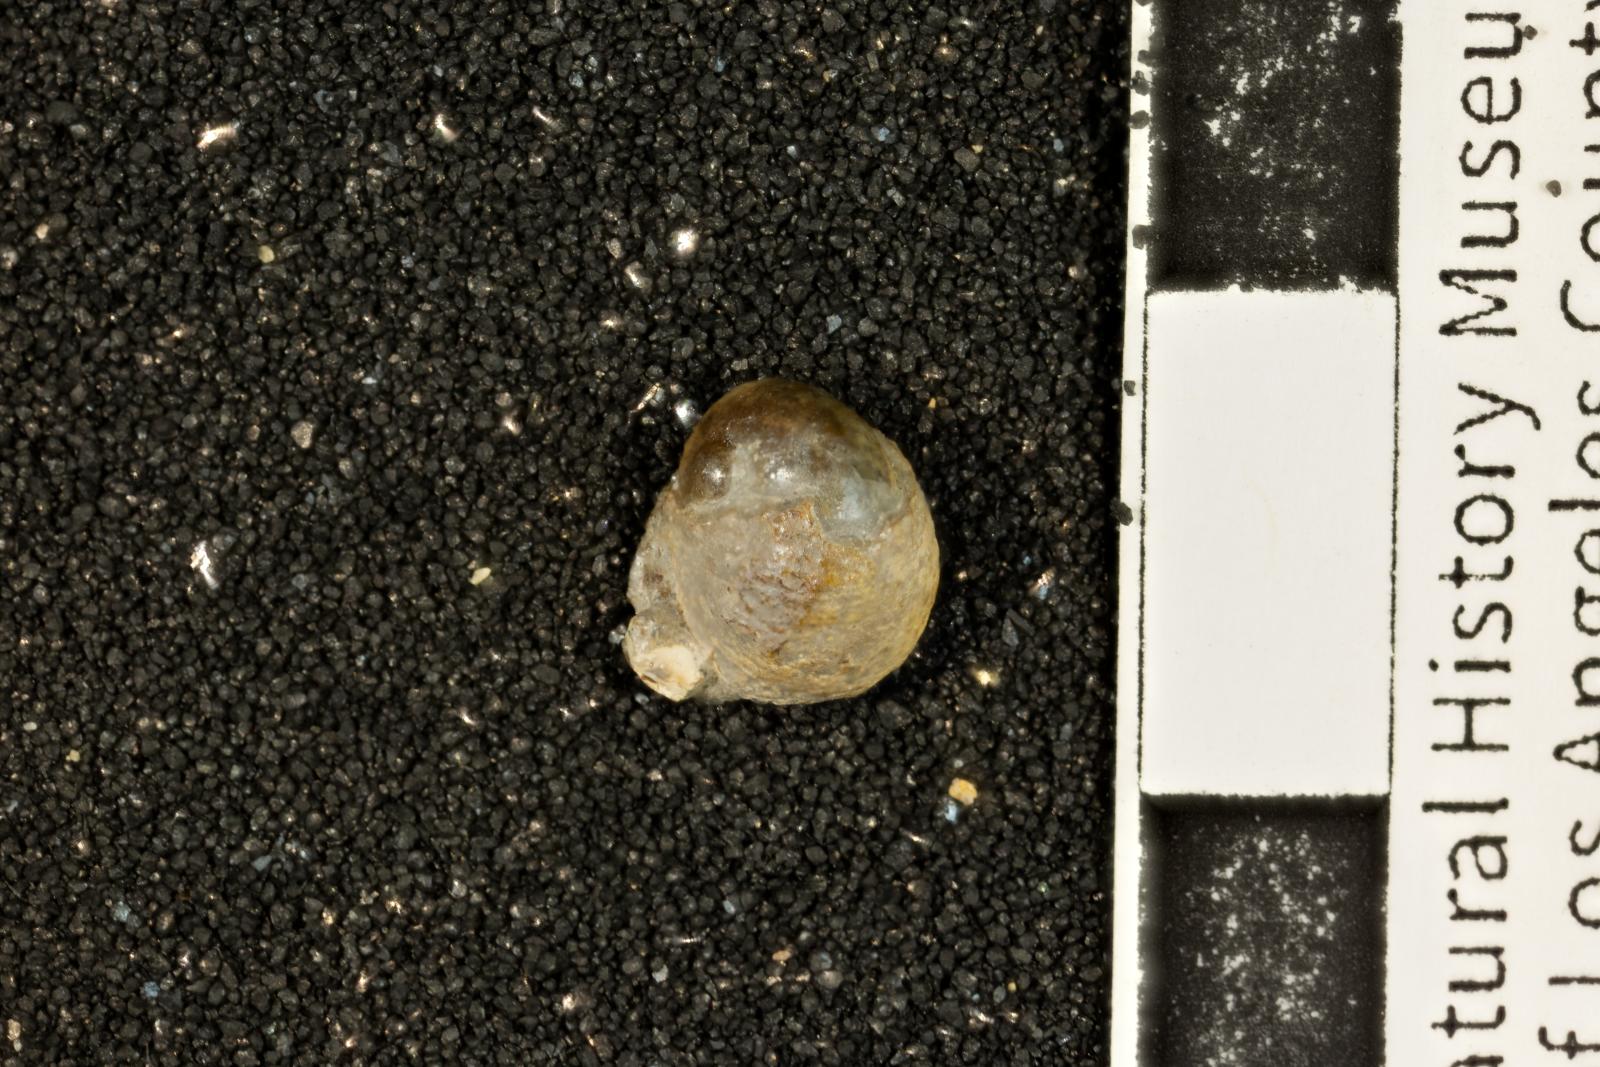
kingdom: Animalia
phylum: Mollusca
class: Gastropoda
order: Cycloneritida
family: Neritidae
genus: Nerita
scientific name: Nerita salsa
